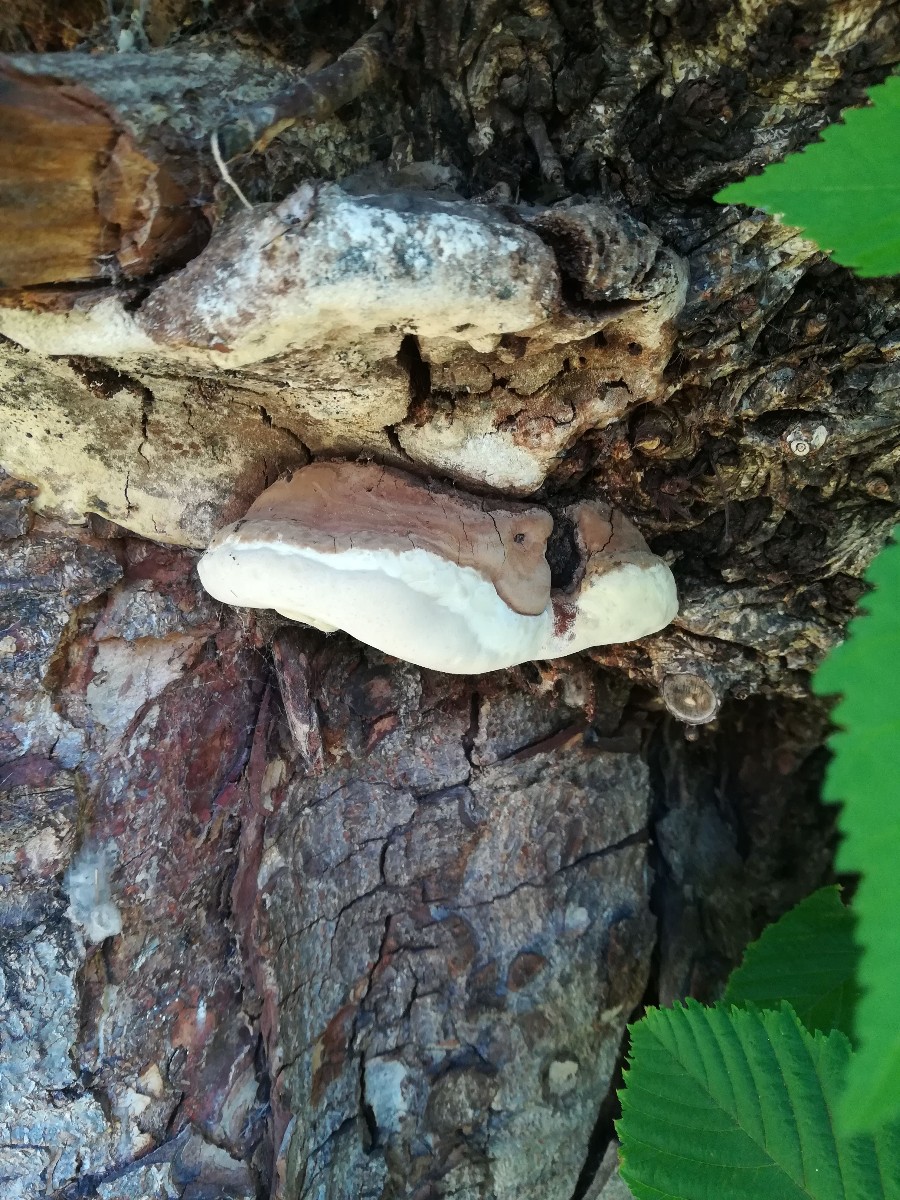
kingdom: Fungi
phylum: Basidiomycota
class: Agaricomycetes
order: Polyporales
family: Polyporaceae
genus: Ganoderma
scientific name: Ganoderma adspersum
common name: grov lakporesvamp
